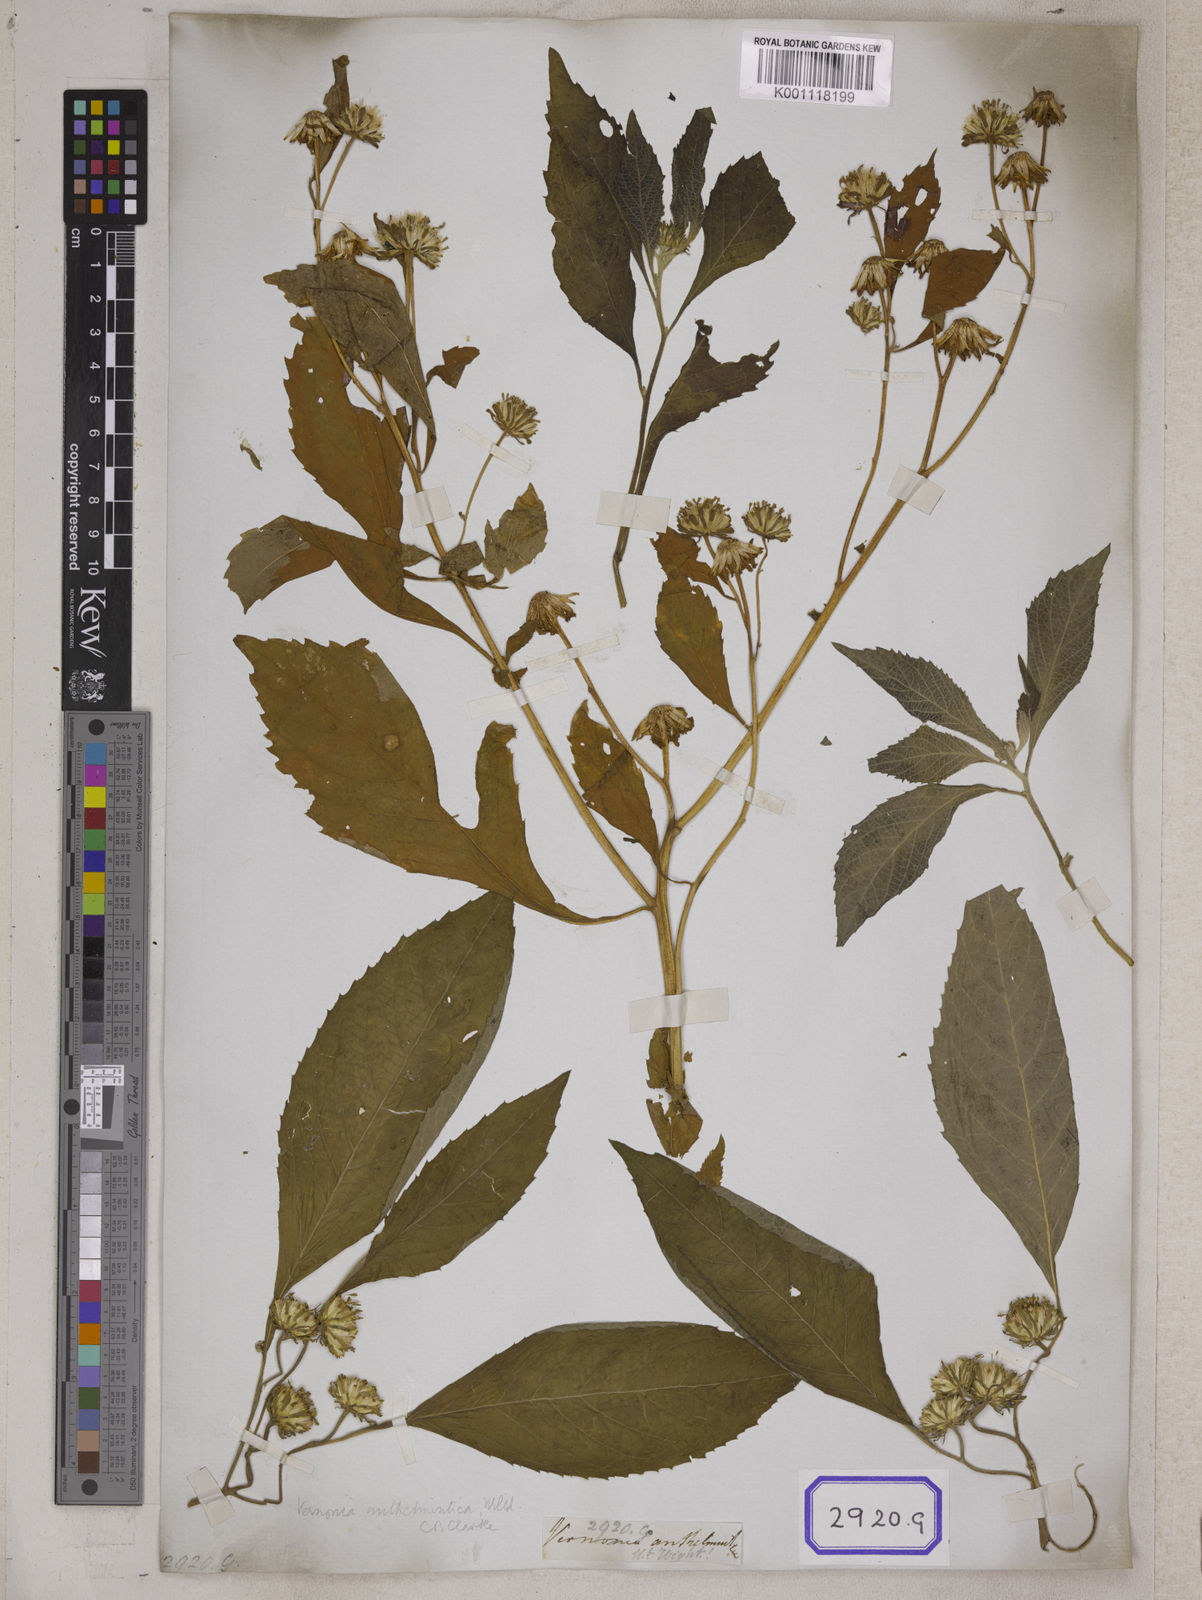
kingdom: Plantae
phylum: Tracheophyta
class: Magnoliopsida
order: Asterales
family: Asteraceae
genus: Baccharoides
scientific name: Baccharoides anthelmintica
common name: Kinka-oil
